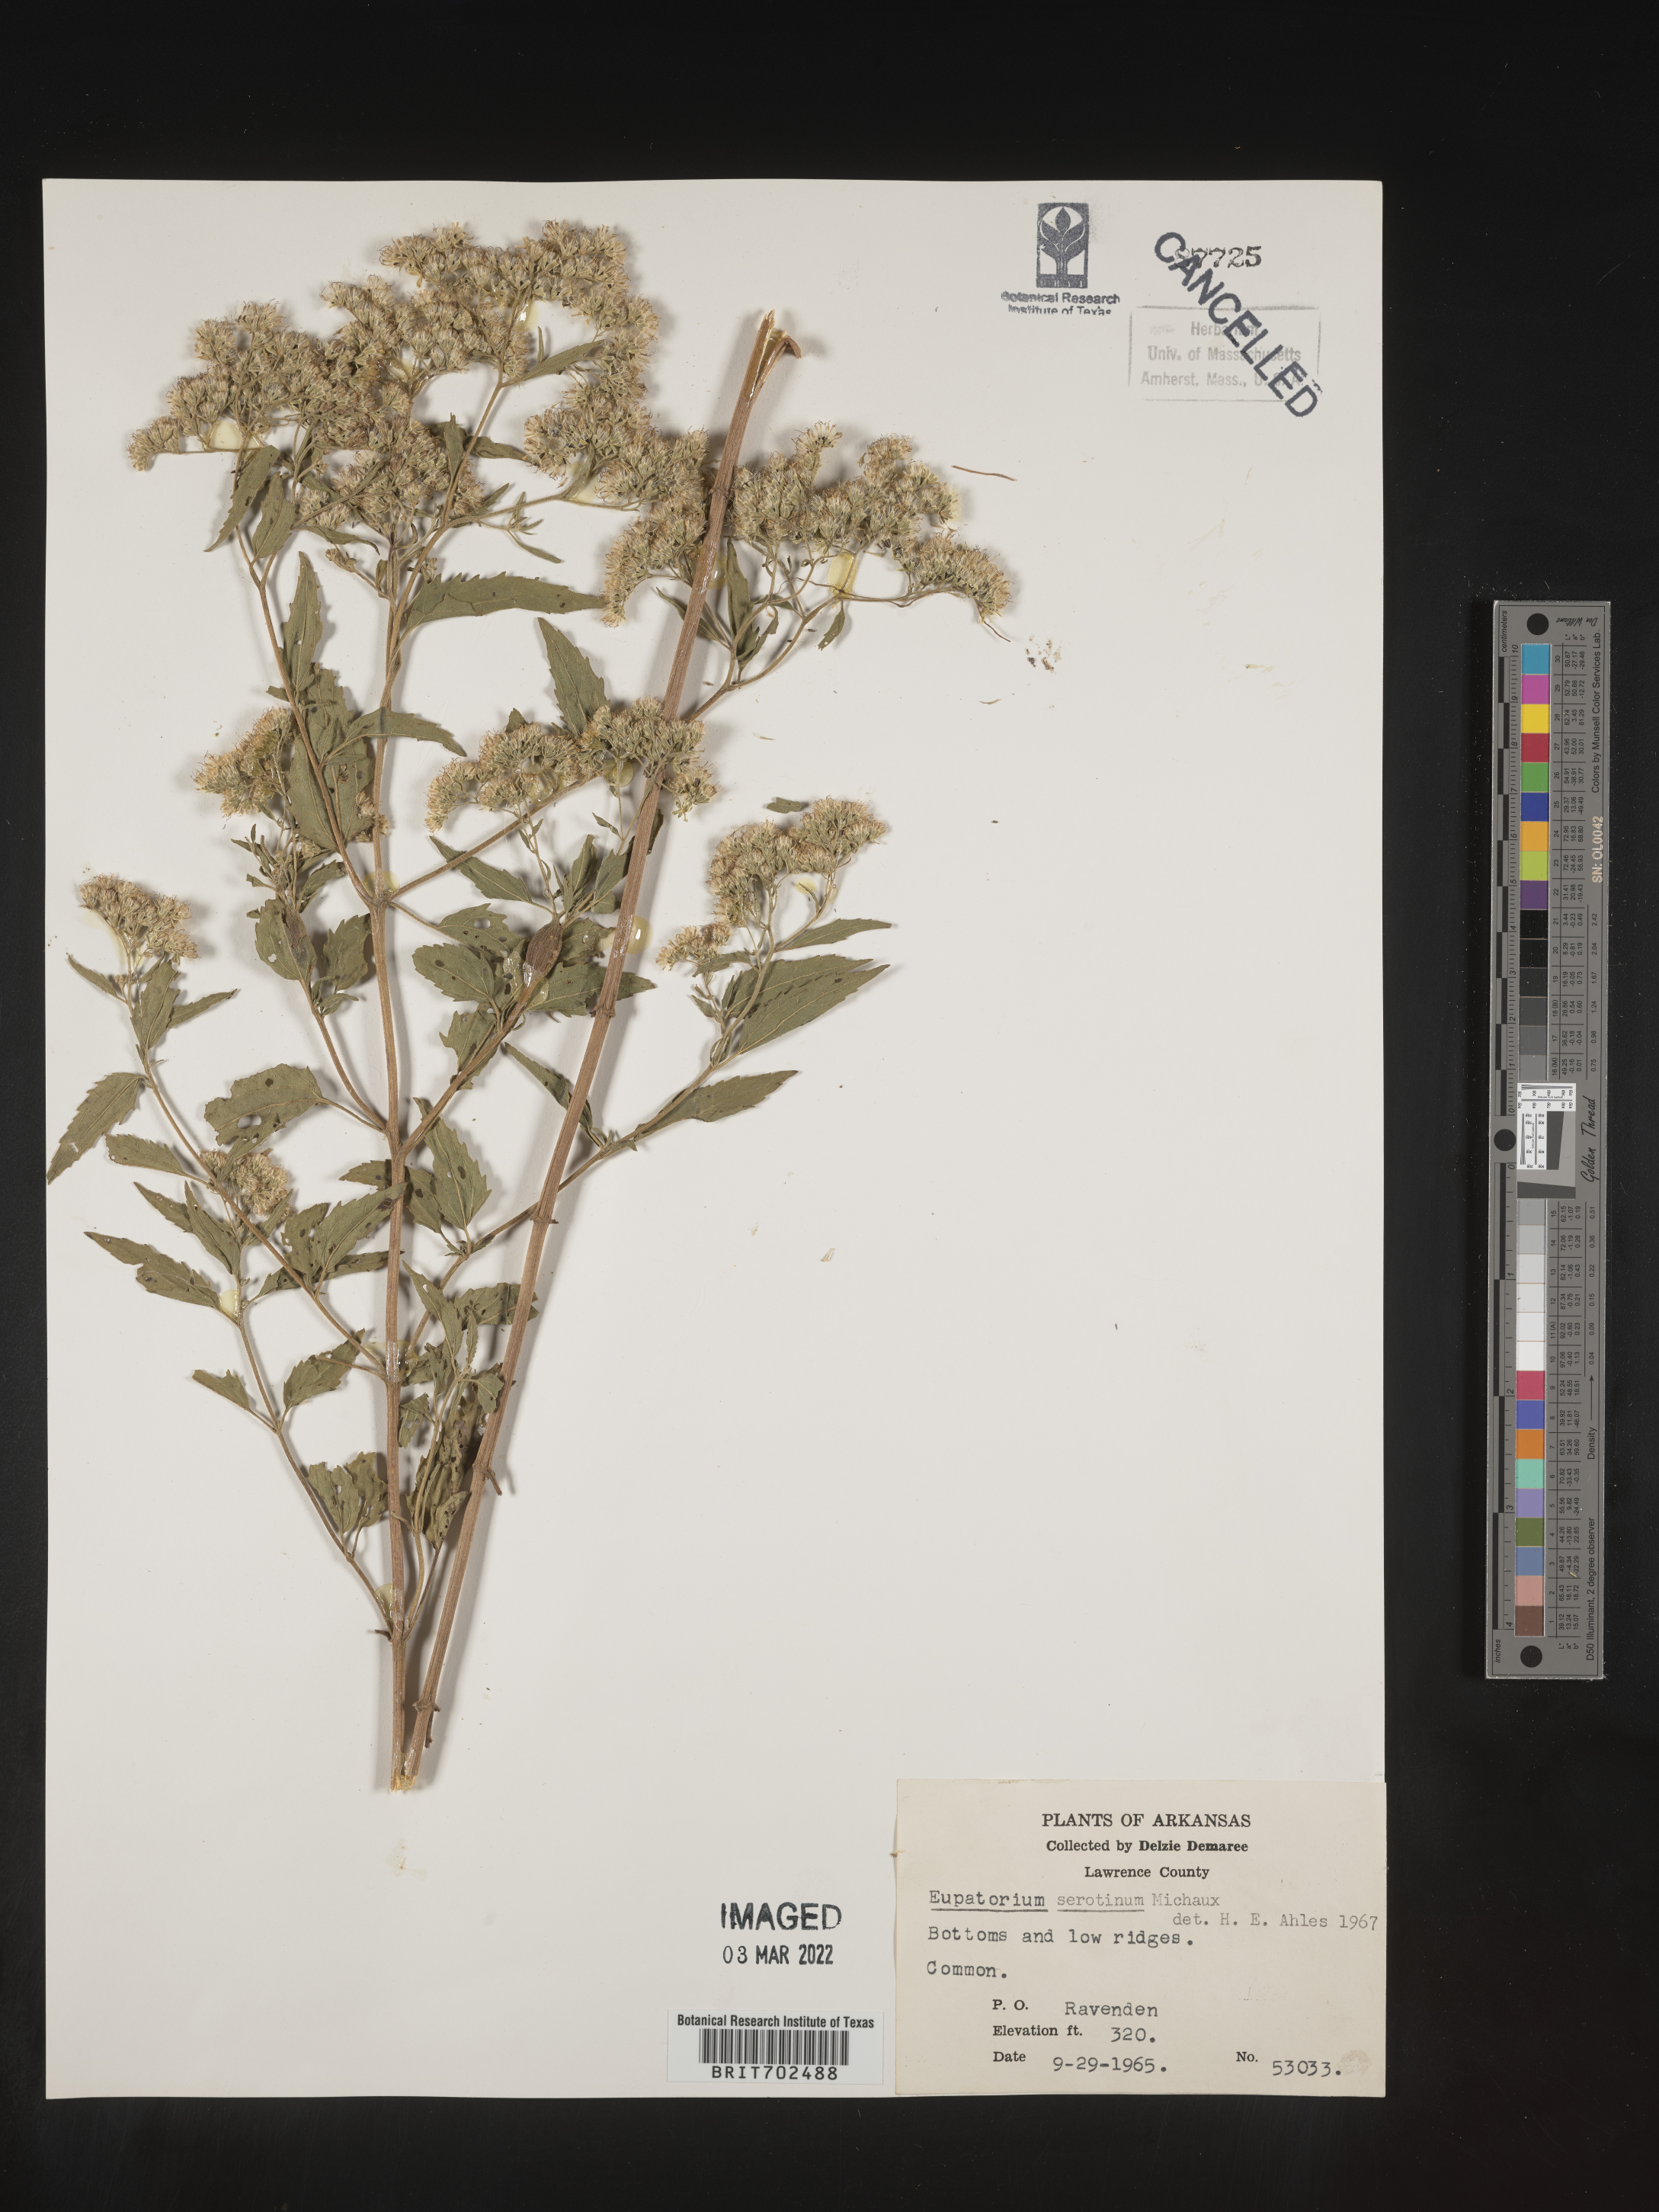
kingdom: Plantae
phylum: Tracheophyta
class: Magnoliopsida
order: Asterales
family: Asteraceae
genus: Eupatorium
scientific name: Eupatorium serotinum
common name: Late boneset
